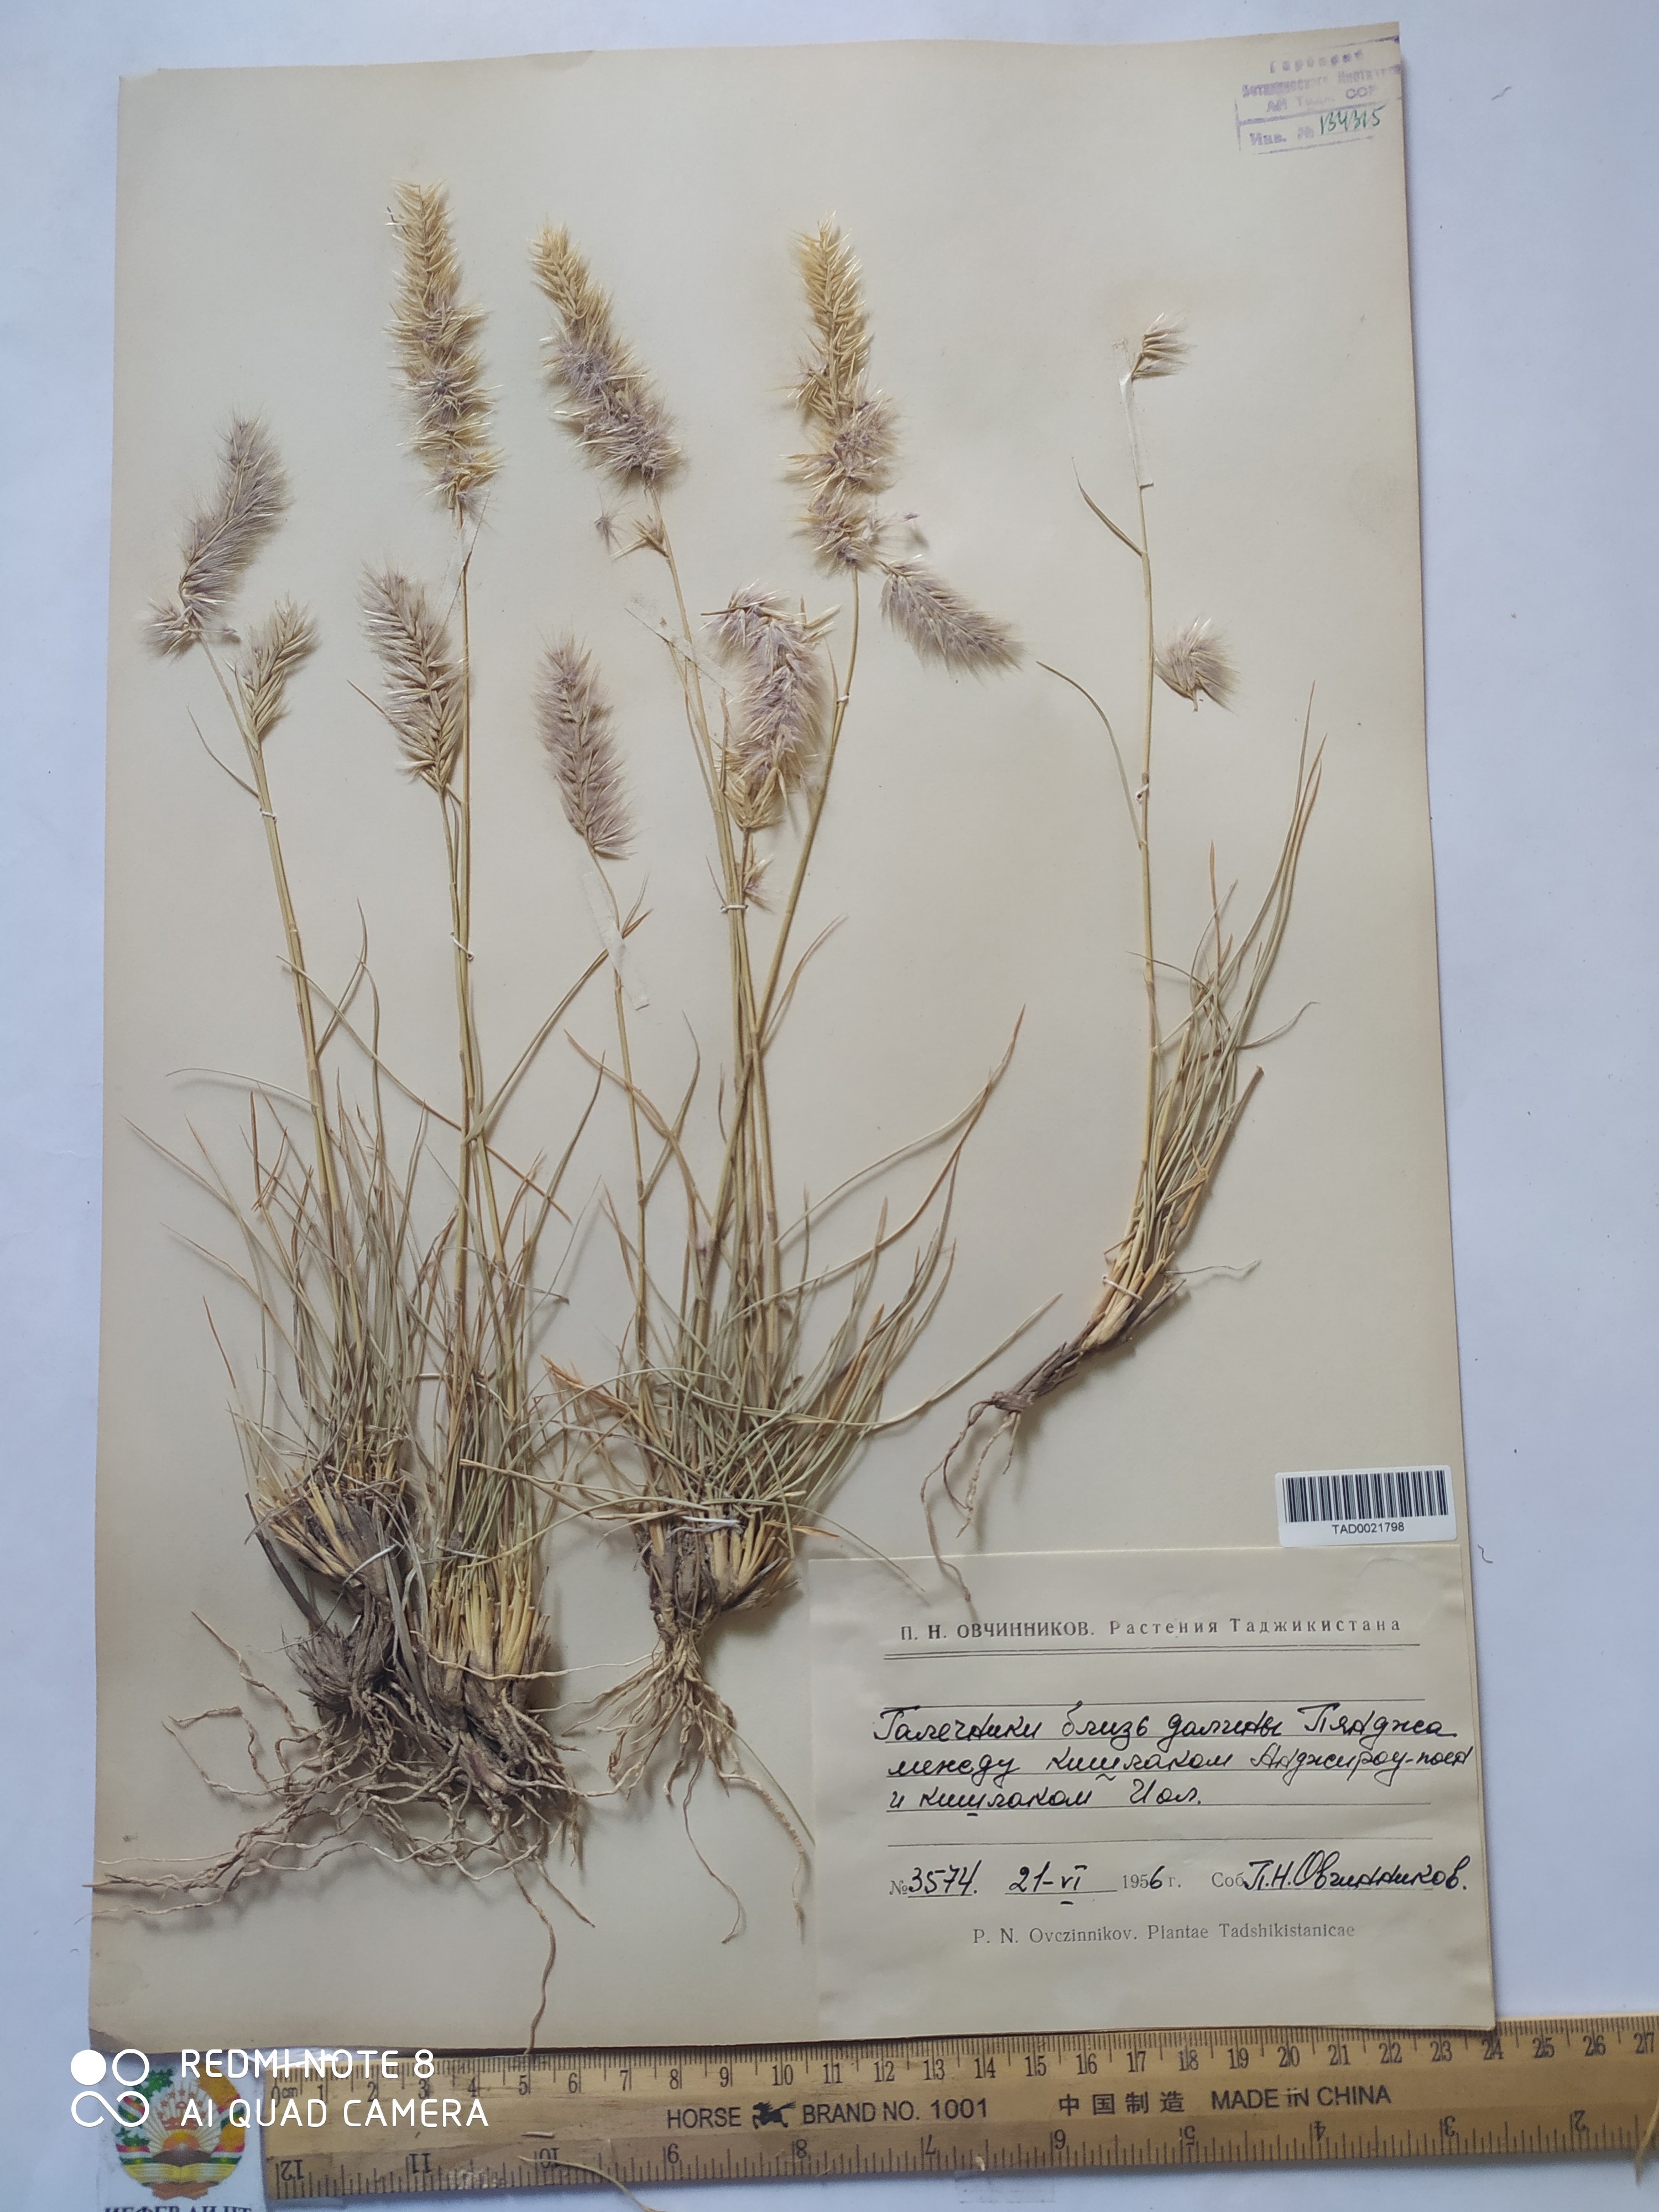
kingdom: Plantae
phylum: Tracheophyta
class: Liliopsida
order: Poales
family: Poaceae
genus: Enneapogon
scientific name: Enneapogon persicus
